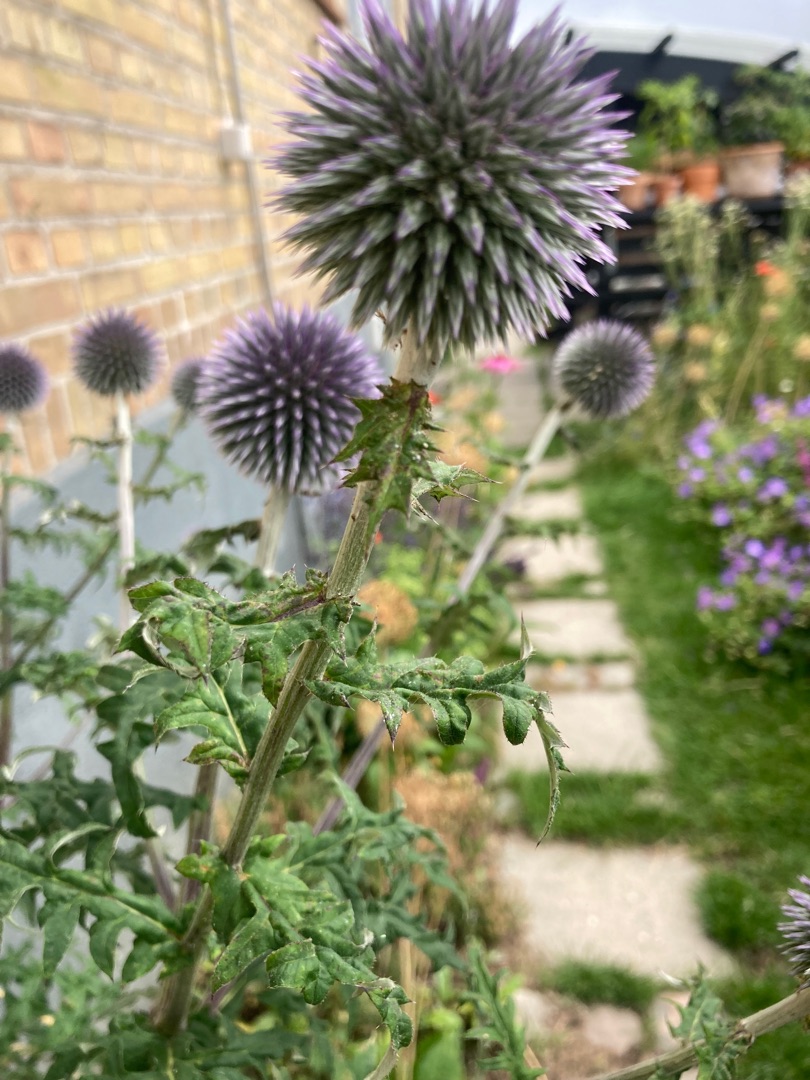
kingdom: Plantae
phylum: Tracheophyta
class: Magnoliopsida
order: Asterales
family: Asteraceae
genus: Echinops
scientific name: Echinops bannaticus
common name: Blå tidselkugle
